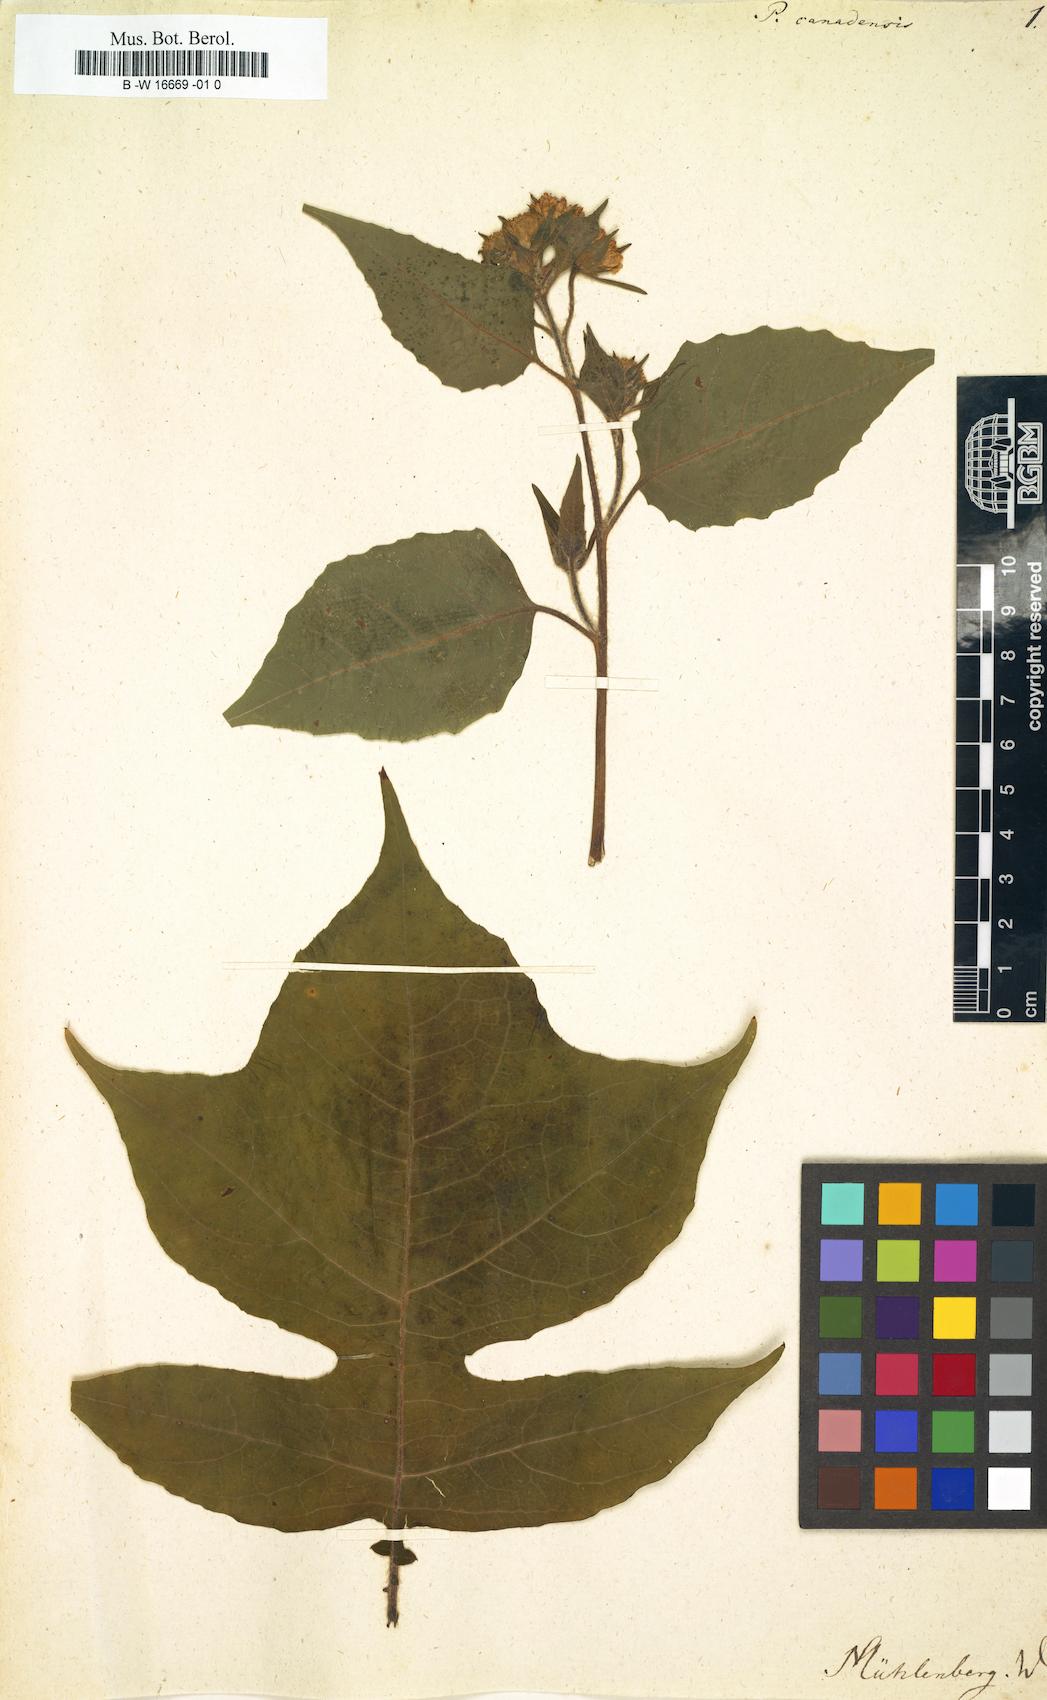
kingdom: Plantae
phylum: Tracheophyta
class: Magnoliopsida
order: Asterales
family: Asteraceae
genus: Polymnia
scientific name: Polymnia canadensis
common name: Pale-flowered leafcup
